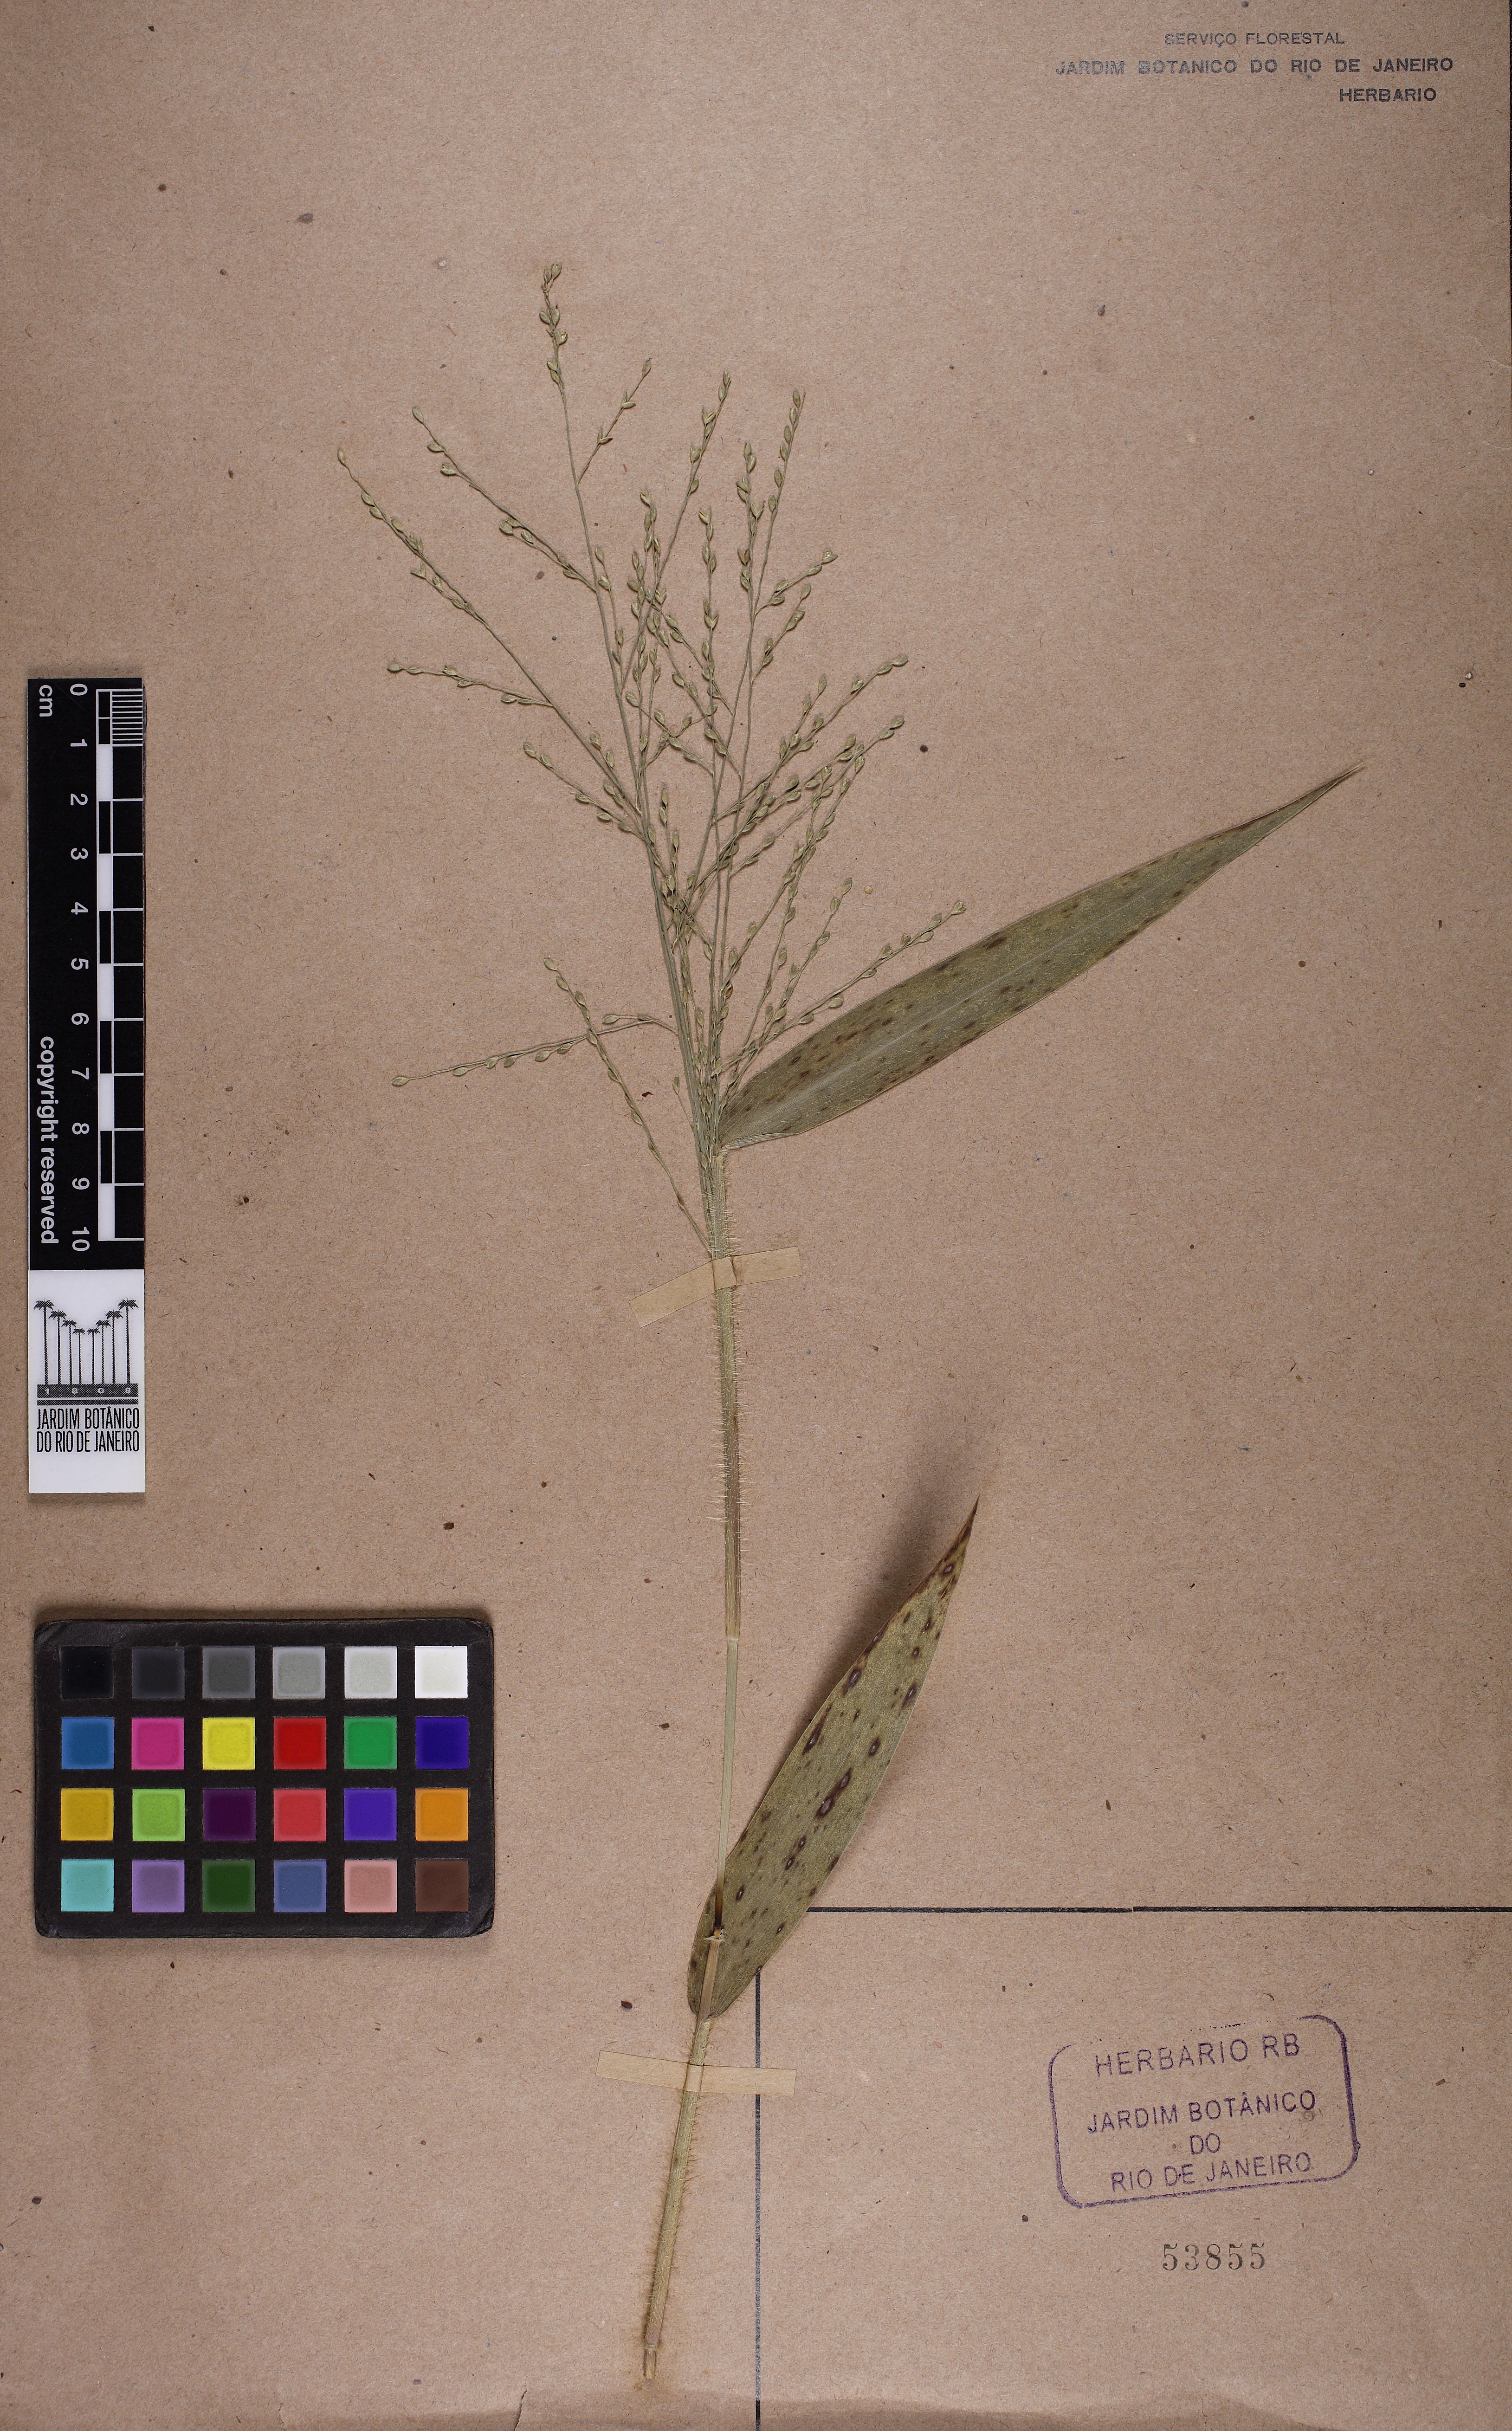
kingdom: Plantae
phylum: Tracheophyta
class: Liliopsida
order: Poales
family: Poaceae
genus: Parodiophyllochloa
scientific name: Parodiophyllochloa ovulifera
